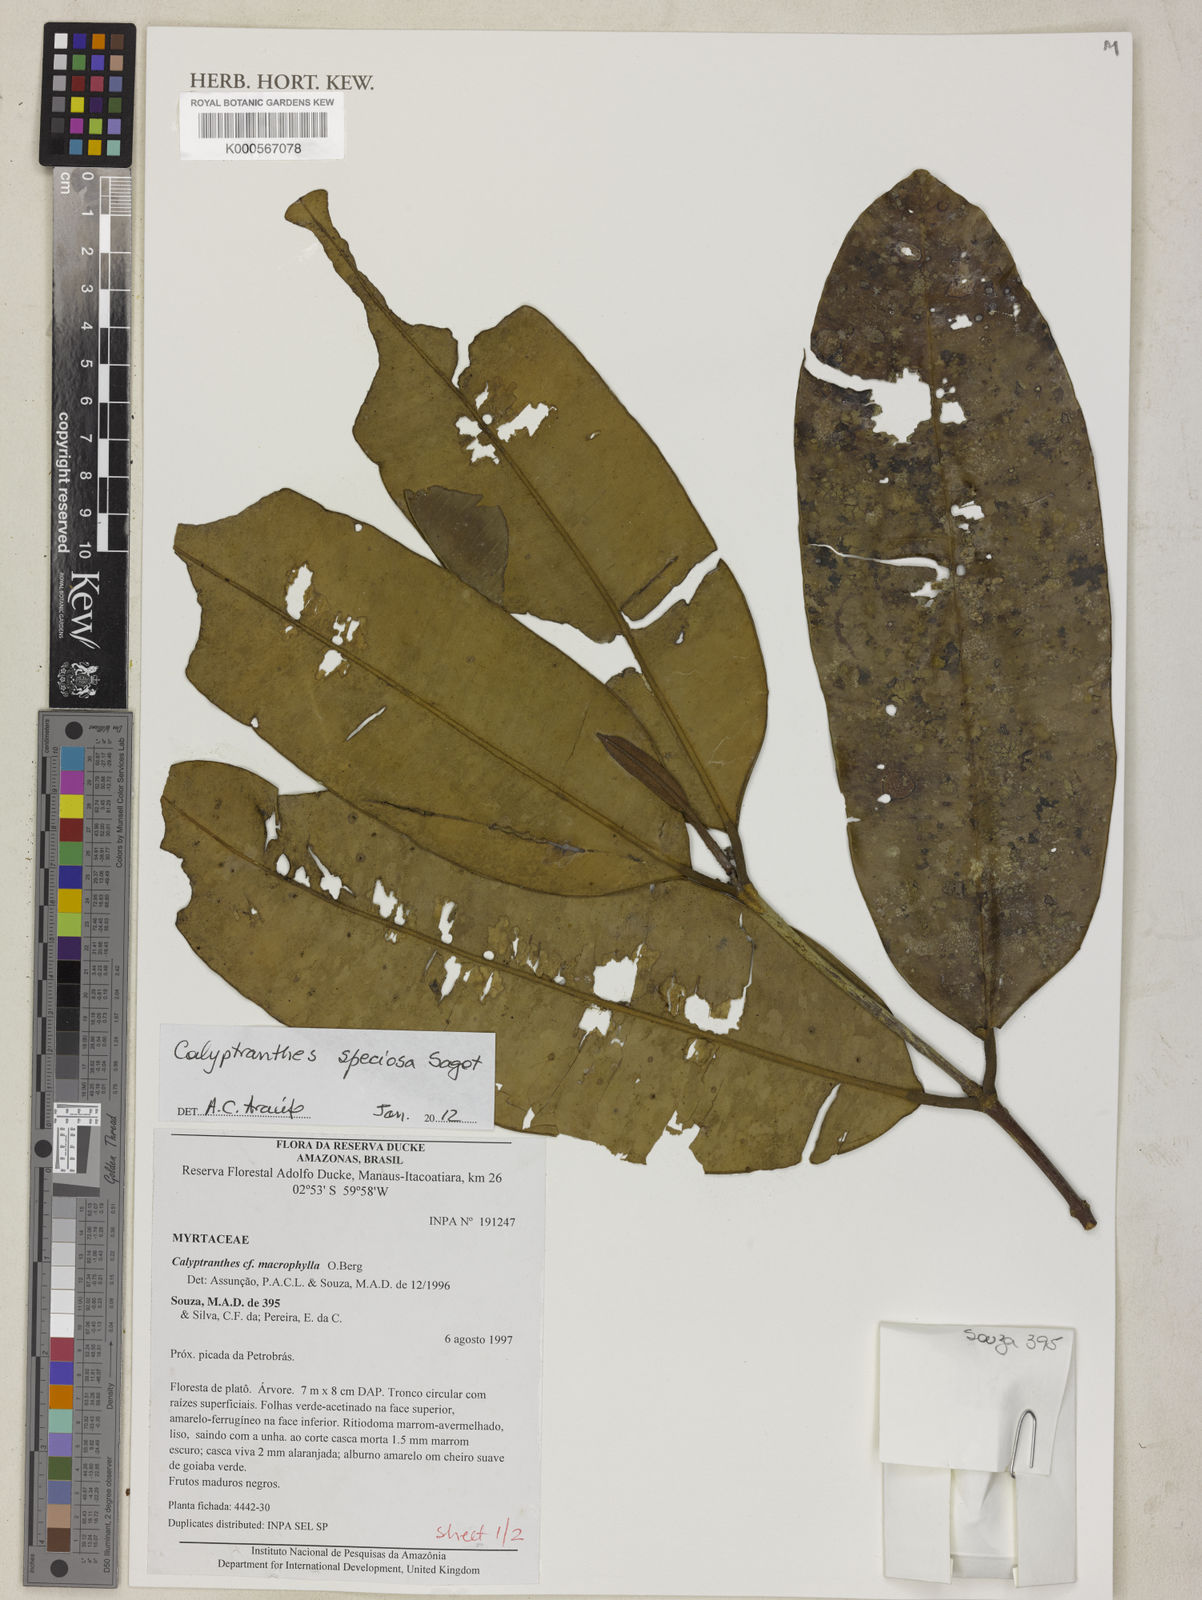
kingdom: Plantae
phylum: Tracheophyta
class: Magnoliopsida
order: Myrtales
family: Myrtaceae
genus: Myrcia
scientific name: Myrcia neospeciosa
